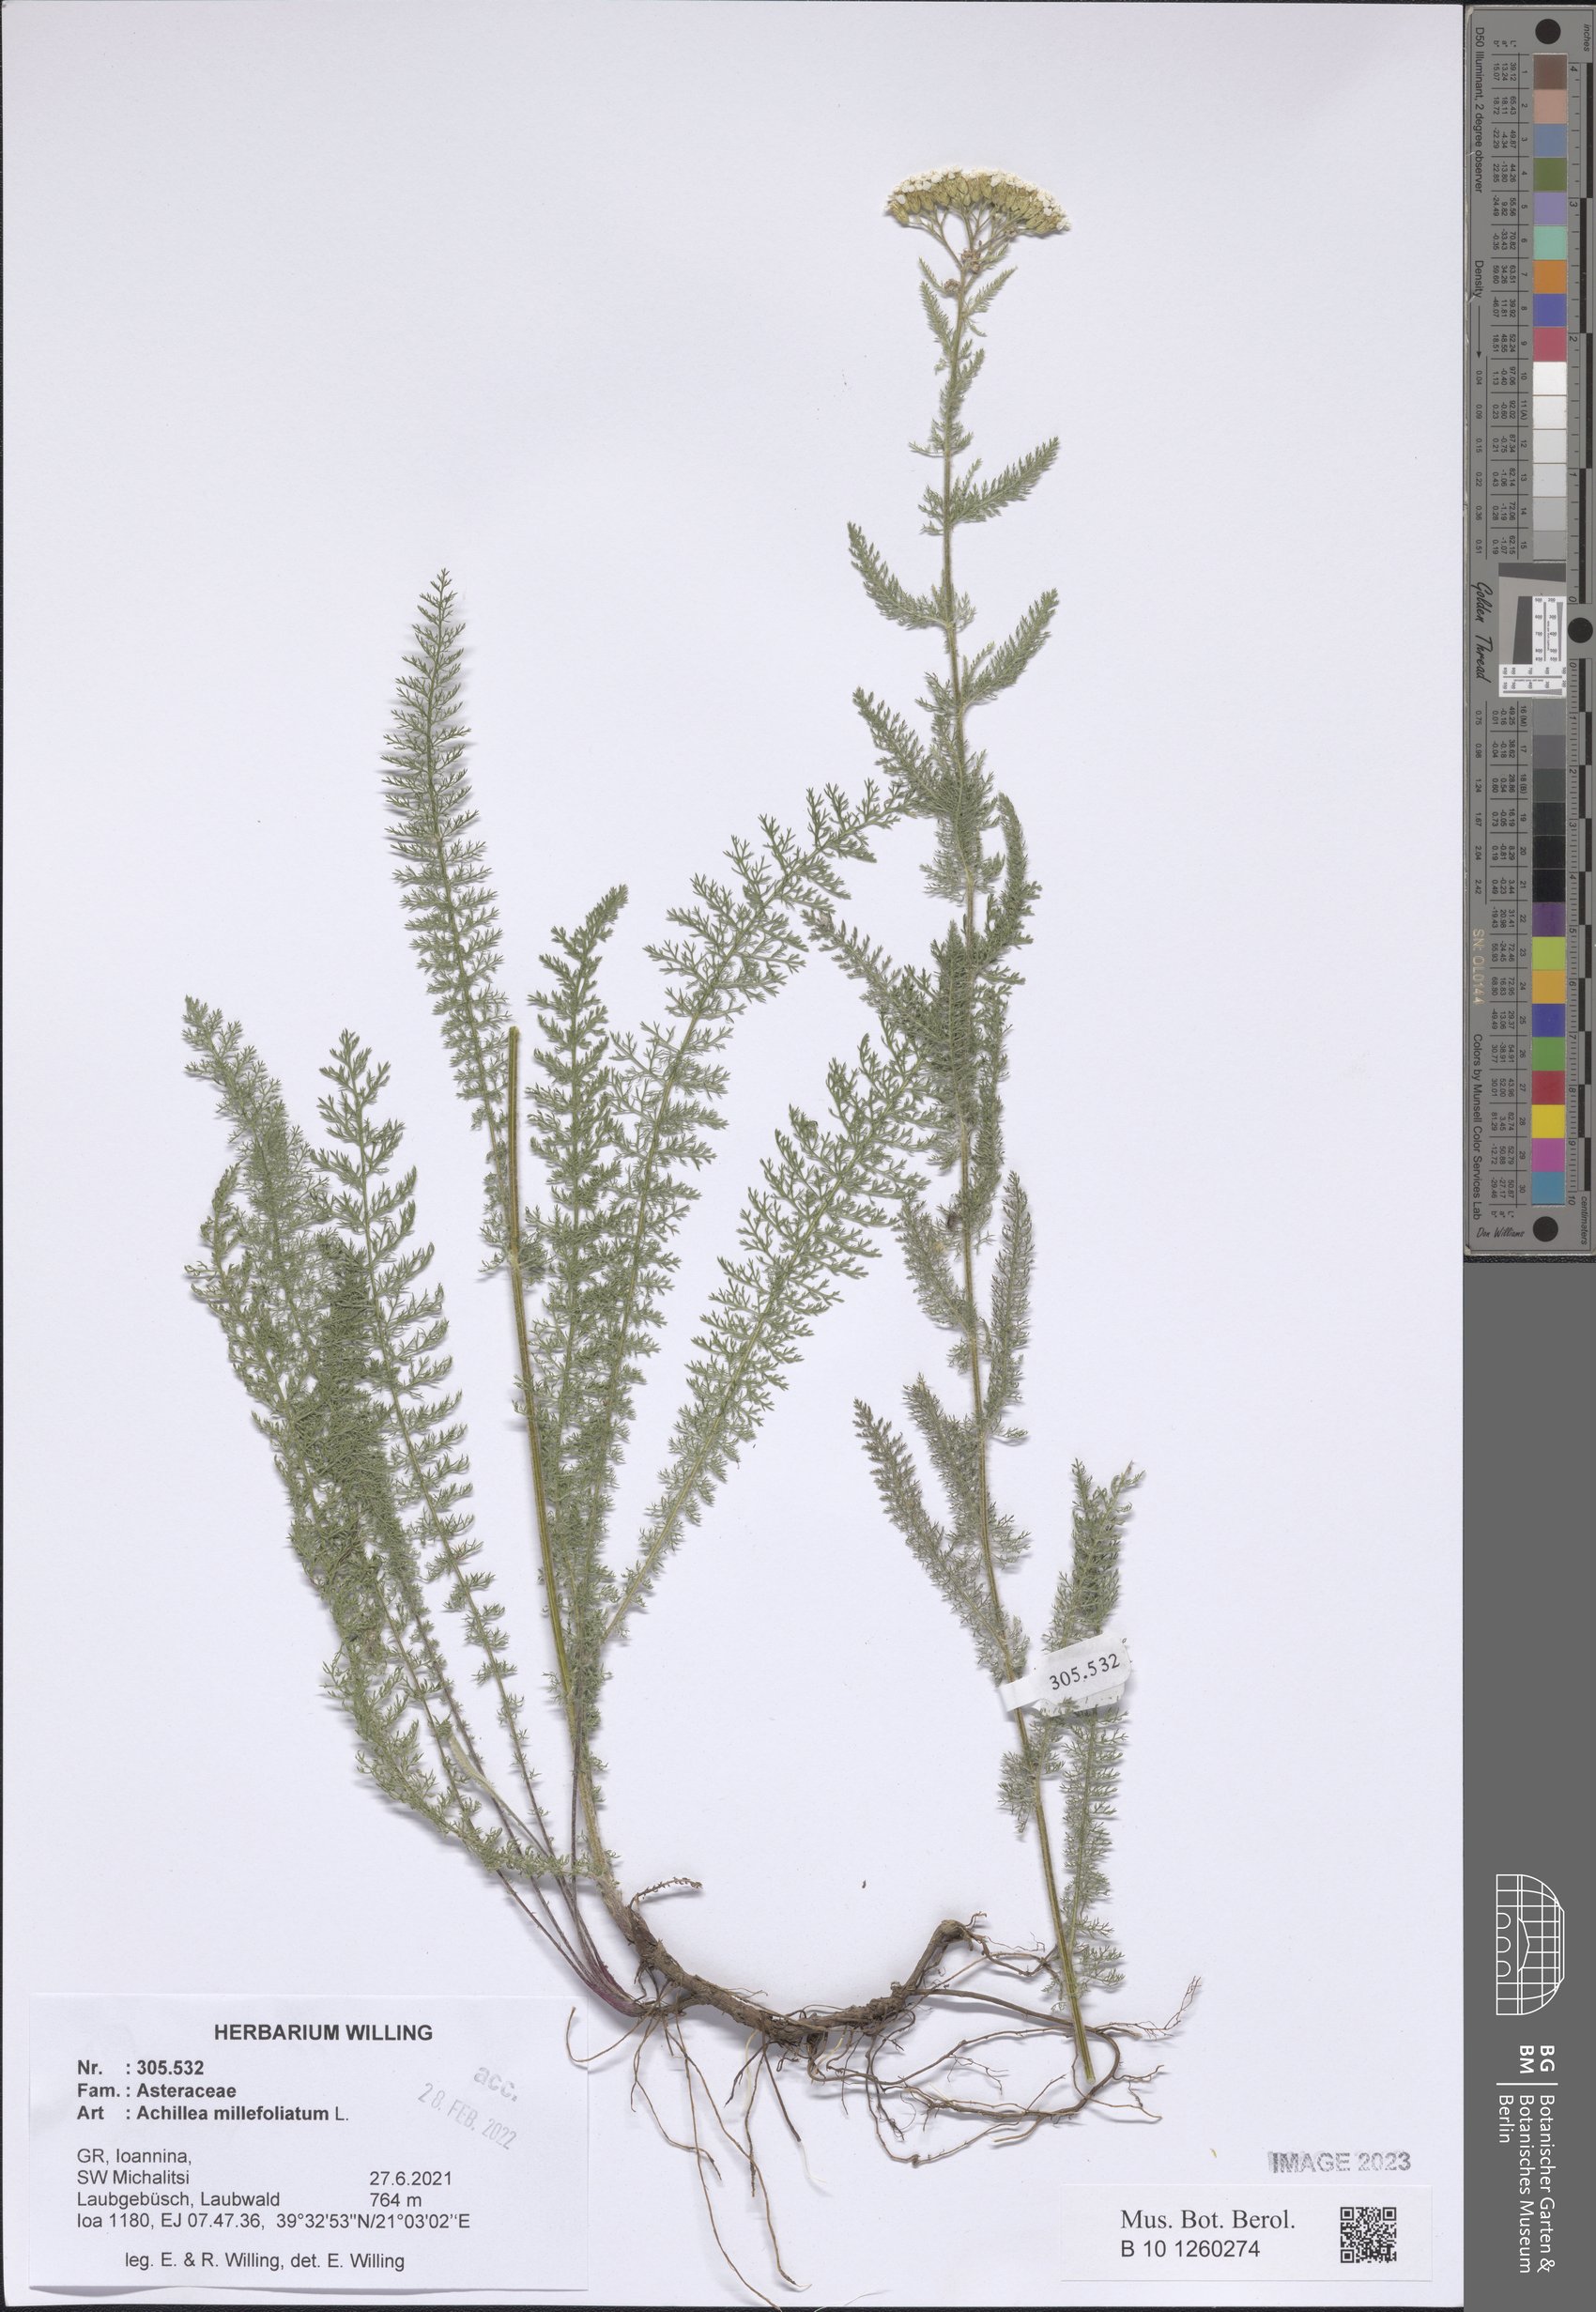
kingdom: Plantae
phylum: Tracheophyta
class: Magnoliopsida
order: Asterales
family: Asteraceae
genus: Achillea
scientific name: Achillea millefolium
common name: Yarrow
